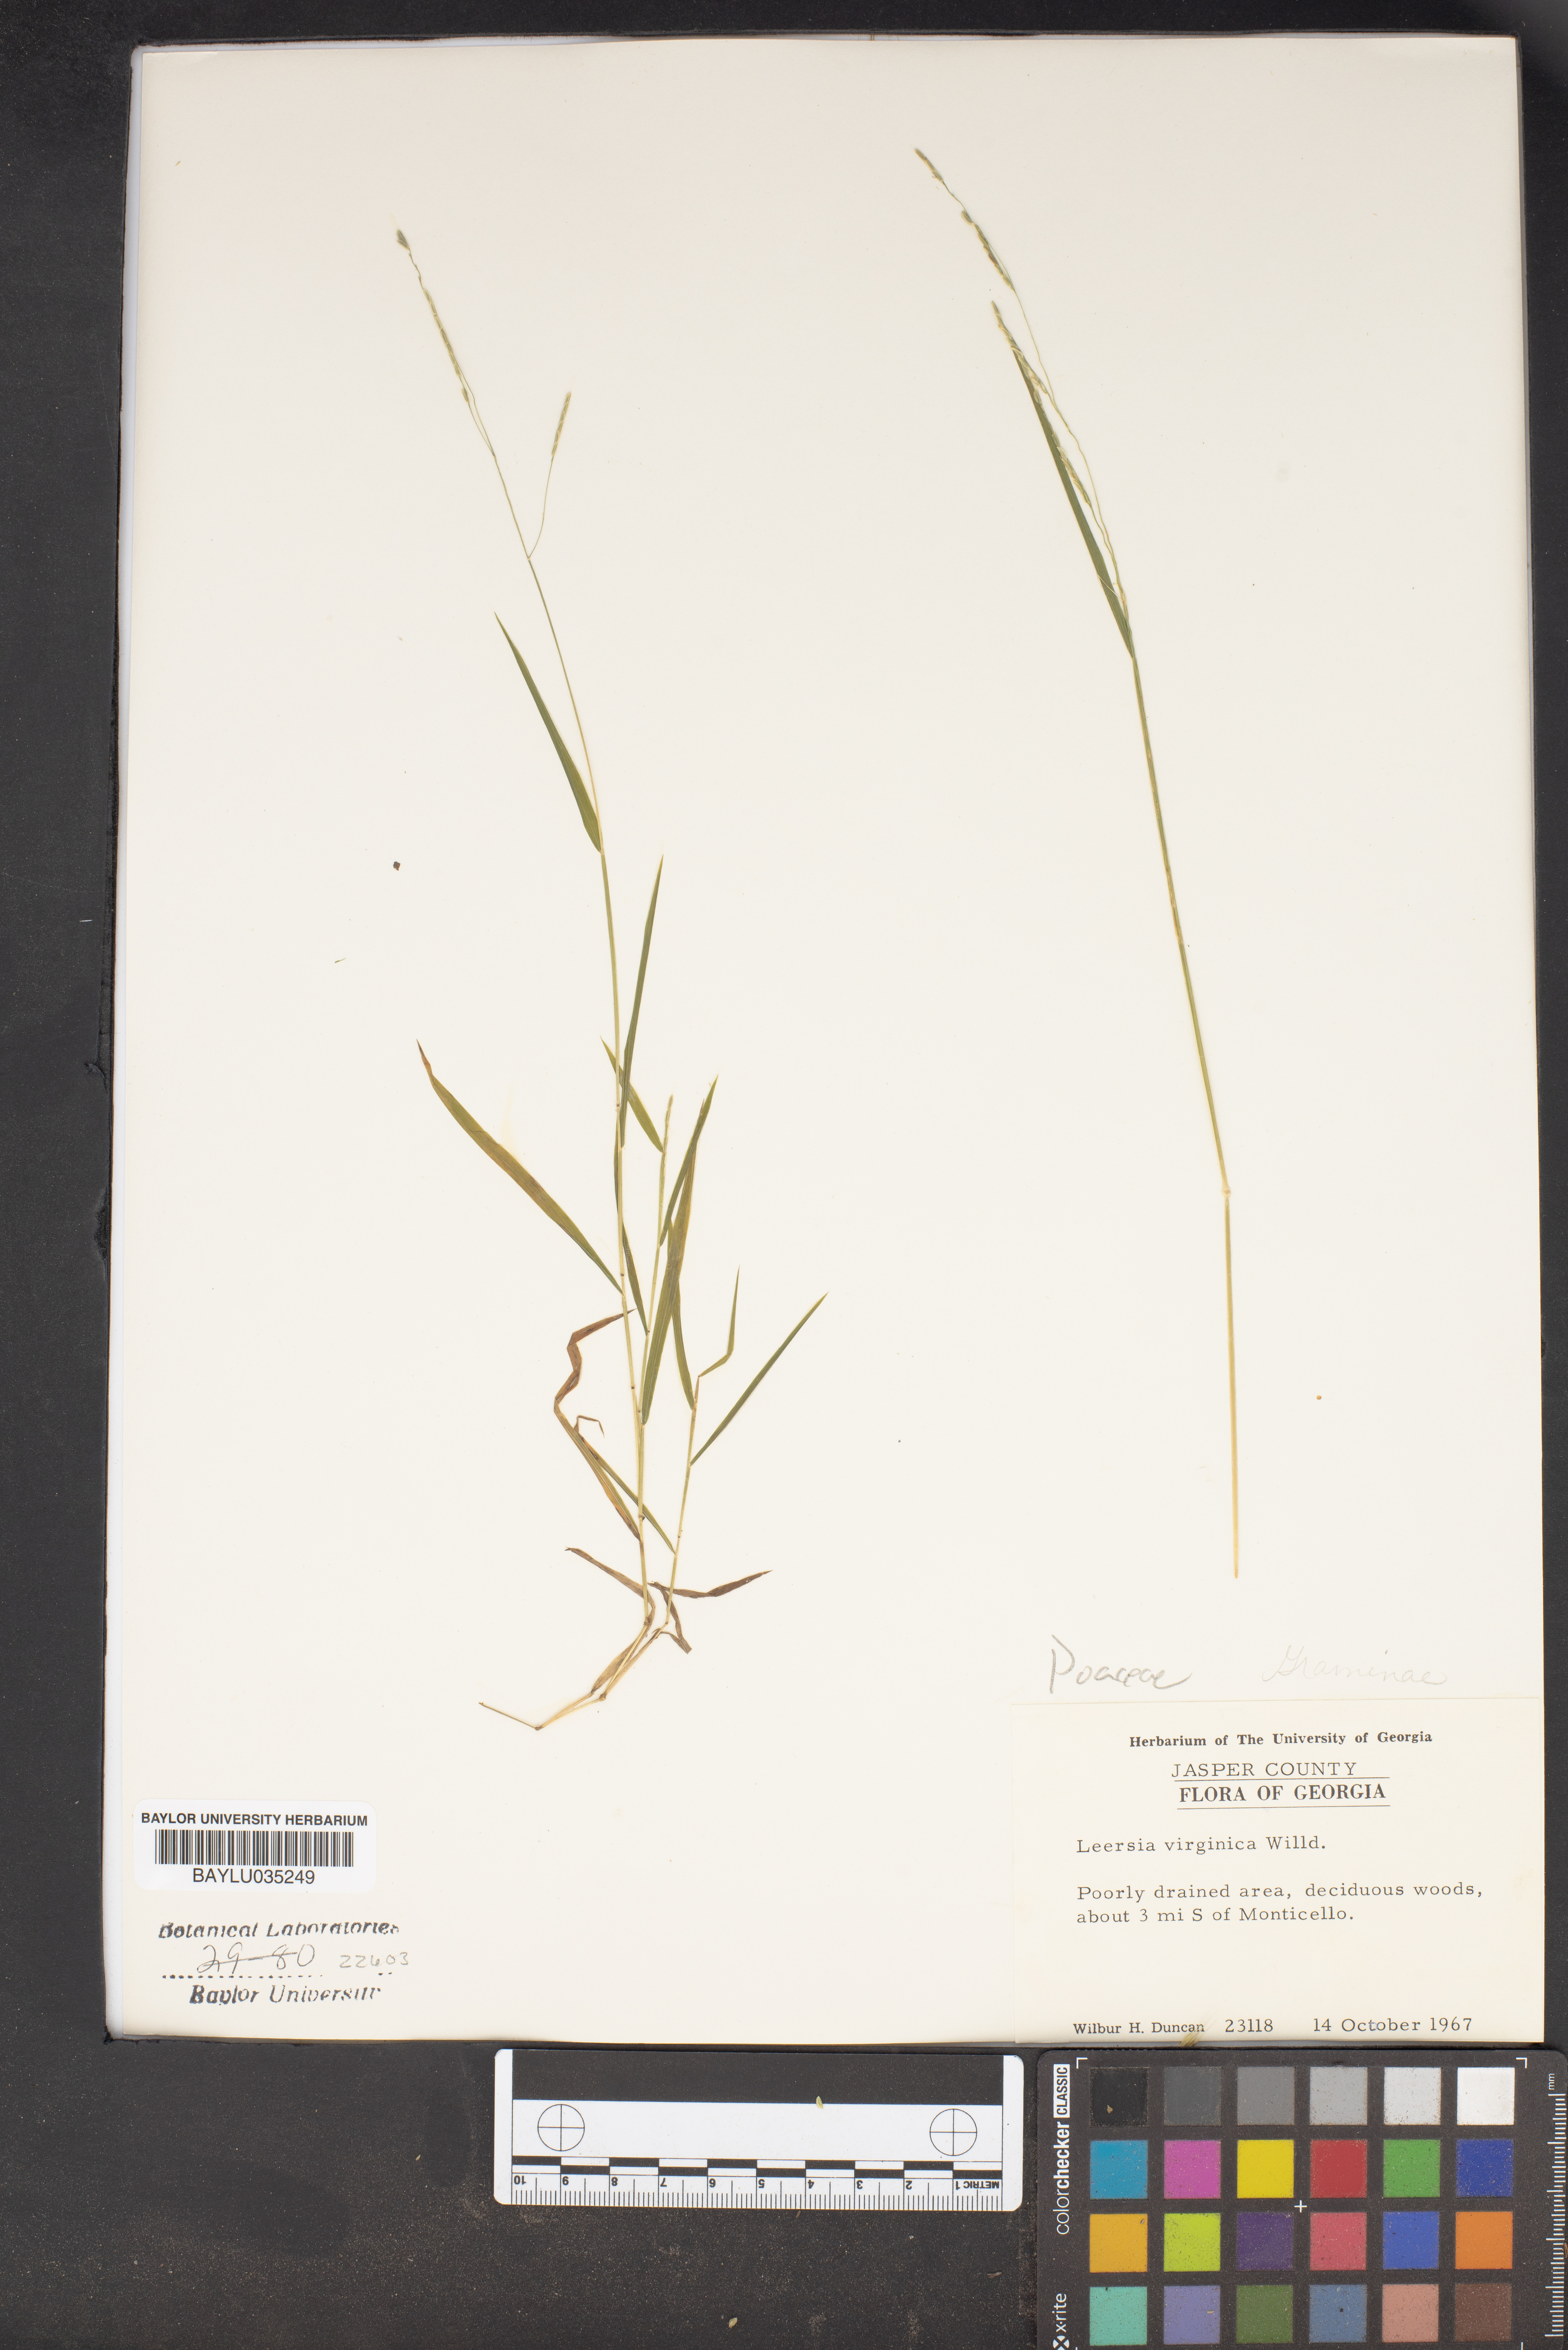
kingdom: Plantae
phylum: Tracheophyta
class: Liliopsida
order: Poales
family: Poaceae
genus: Leersia
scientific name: Leersia virginica
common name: White cutgrass
